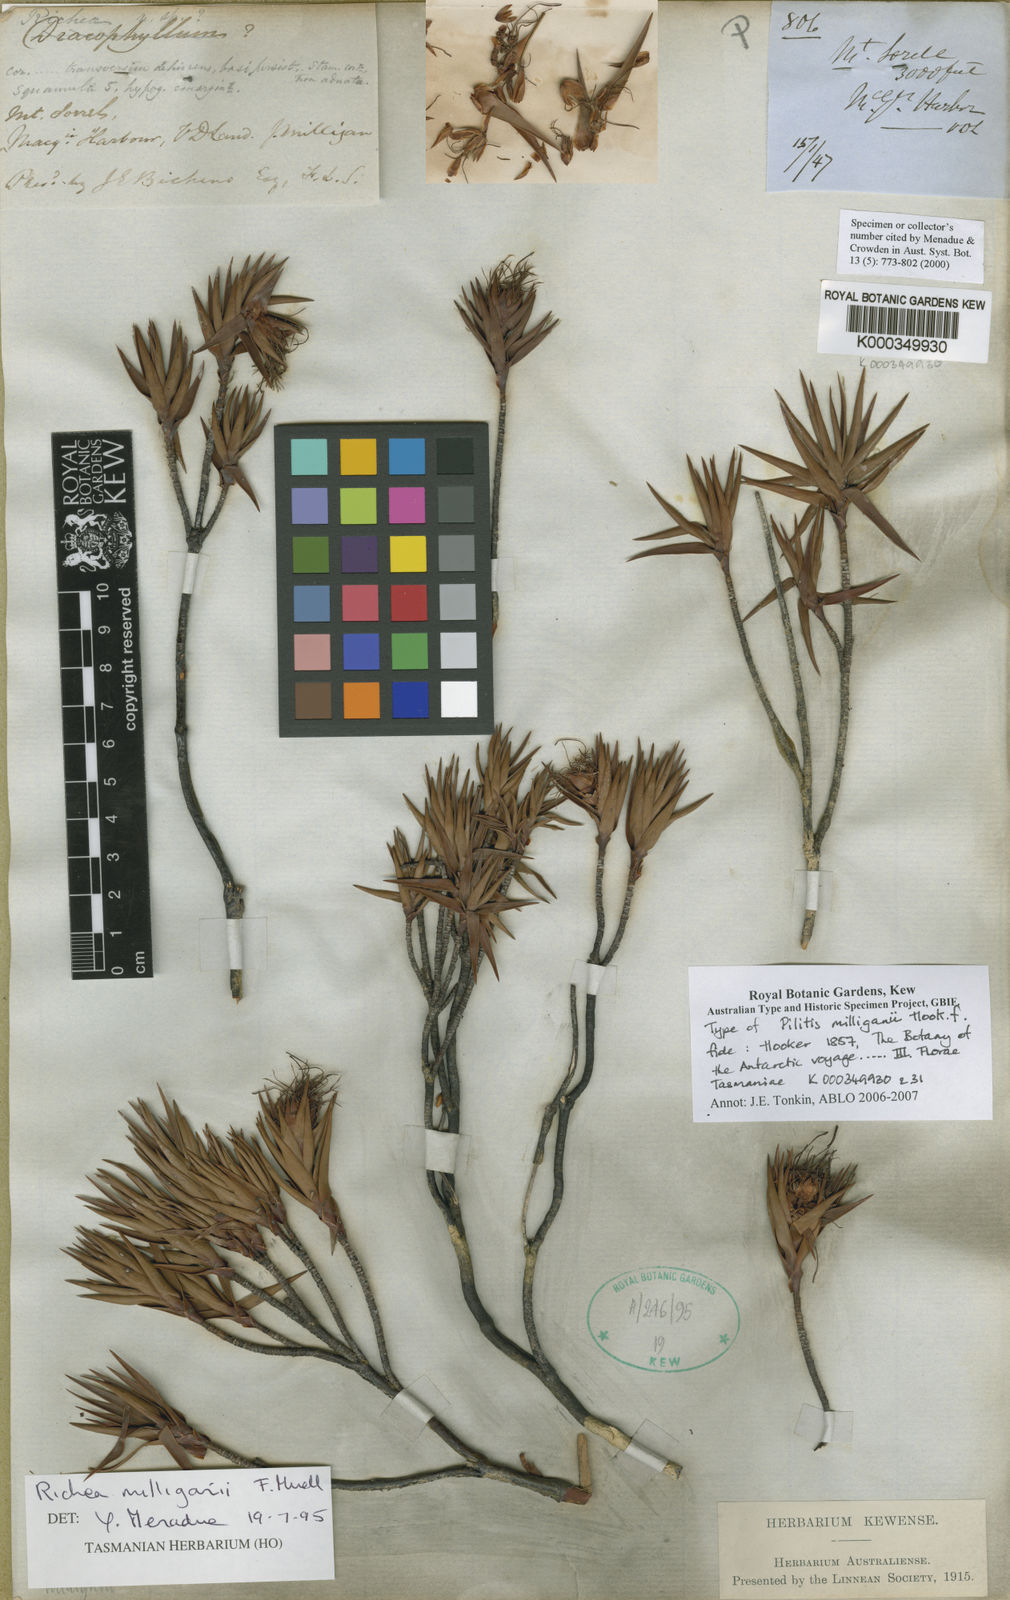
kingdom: Plantae
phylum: Tracheophyta
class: Magnoliopsida
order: Ericales
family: Ericaceae
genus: Dracophyllum
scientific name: Dracophyllum tasmanicum
